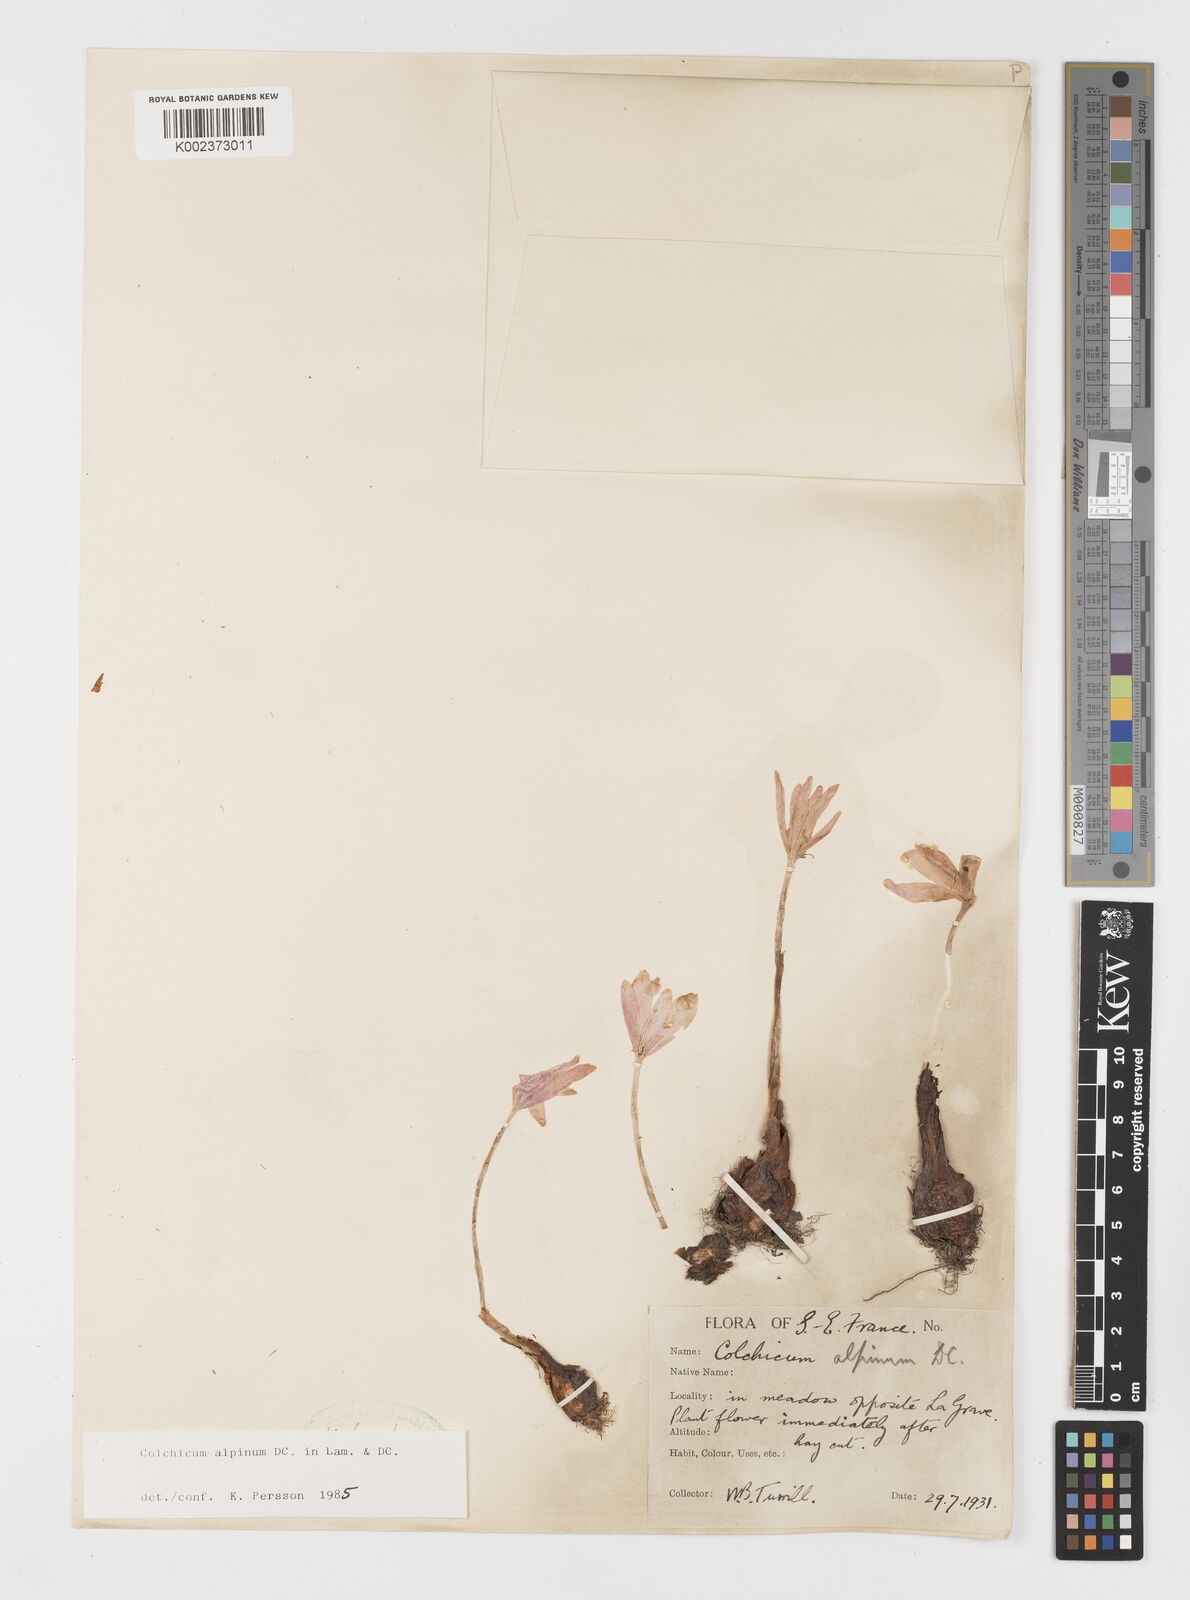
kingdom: Plantae
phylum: Tracheophyta
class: Liliopsida
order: Liliales
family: Colchicaceae
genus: Colchicum
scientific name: Colchicum alpinum
